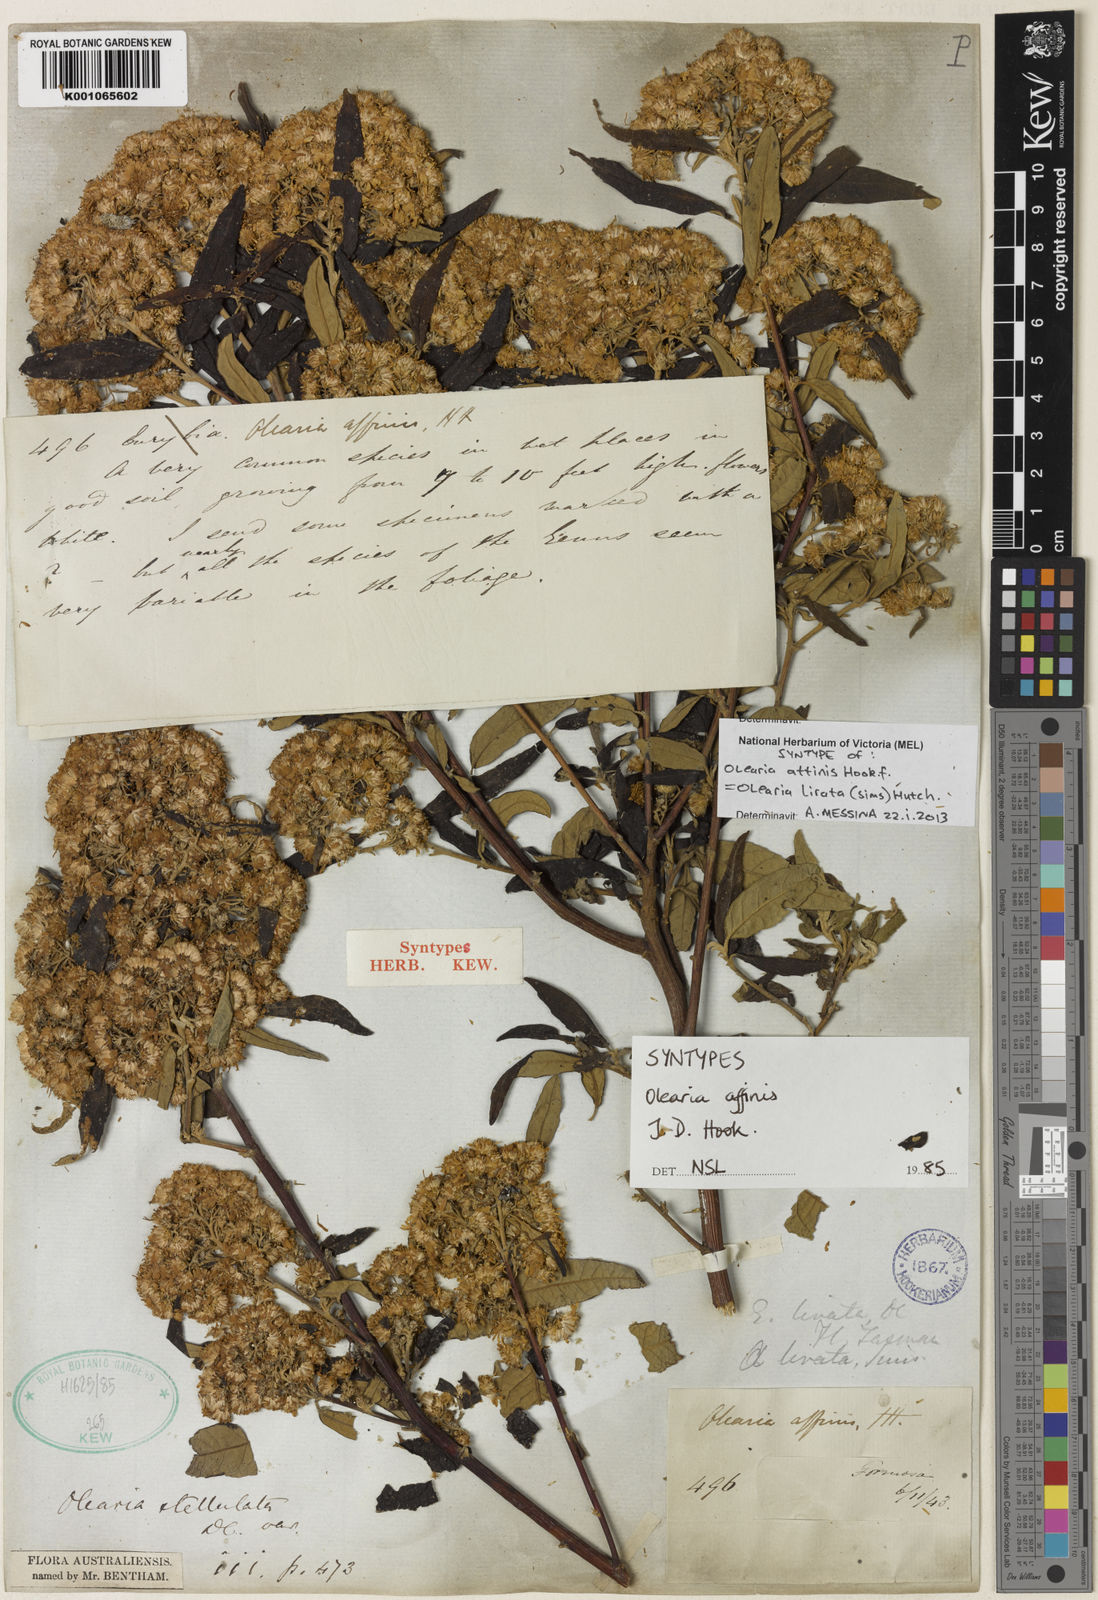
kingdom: Plantae
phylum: Tracheophyta
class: Magnoliopsida
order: Asterales
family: Asteraceae
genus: Olearia
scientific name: Olearia stellulata
